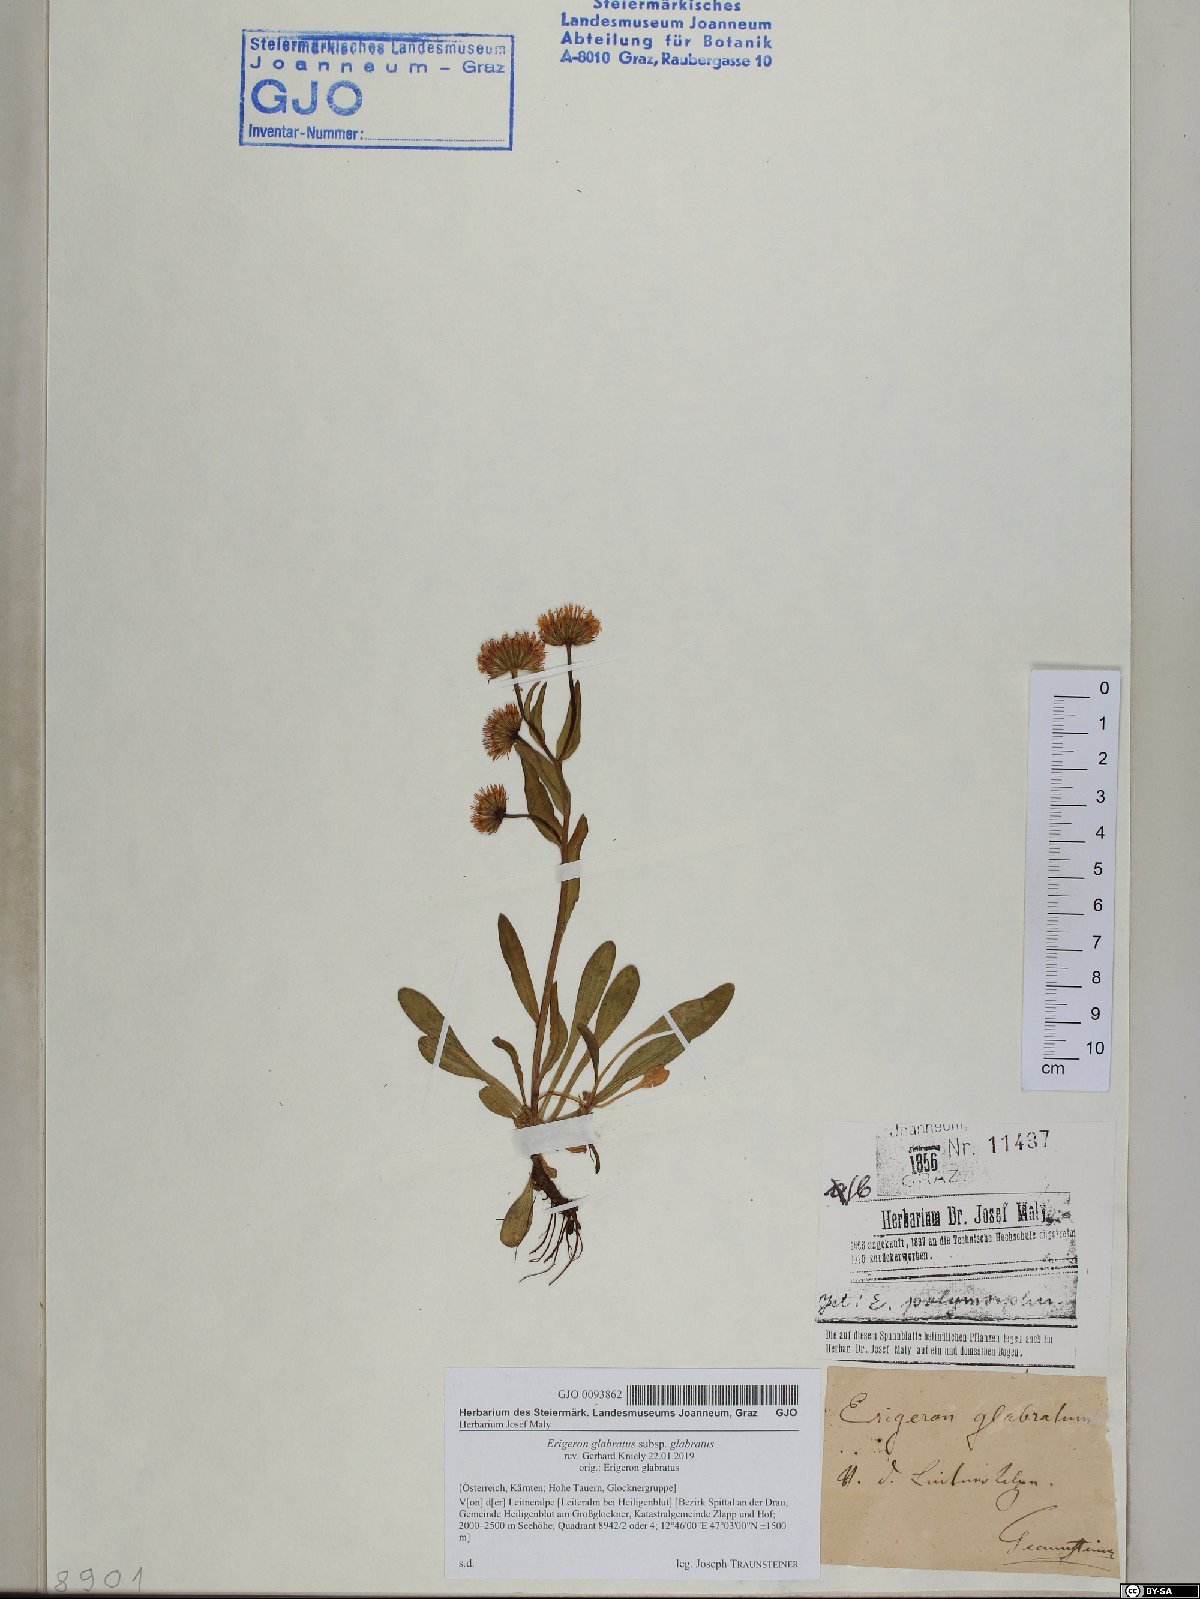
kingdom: Plantae
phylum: Tracheophyta
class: Magnoliopsida
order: Asterales
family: Asteraceae
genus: Erigeron
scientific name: Erigeron glabratus
